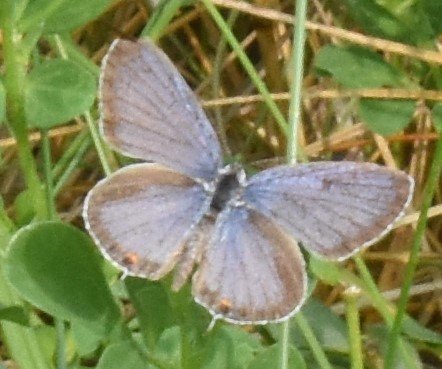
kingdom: Animalia
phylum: Arthropoda
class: Insecta
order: Lepidoptera
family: Lycaenidae
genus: Elkalyce
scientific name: Elkalyce comyntas
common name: Eastern Tailed-Blue
